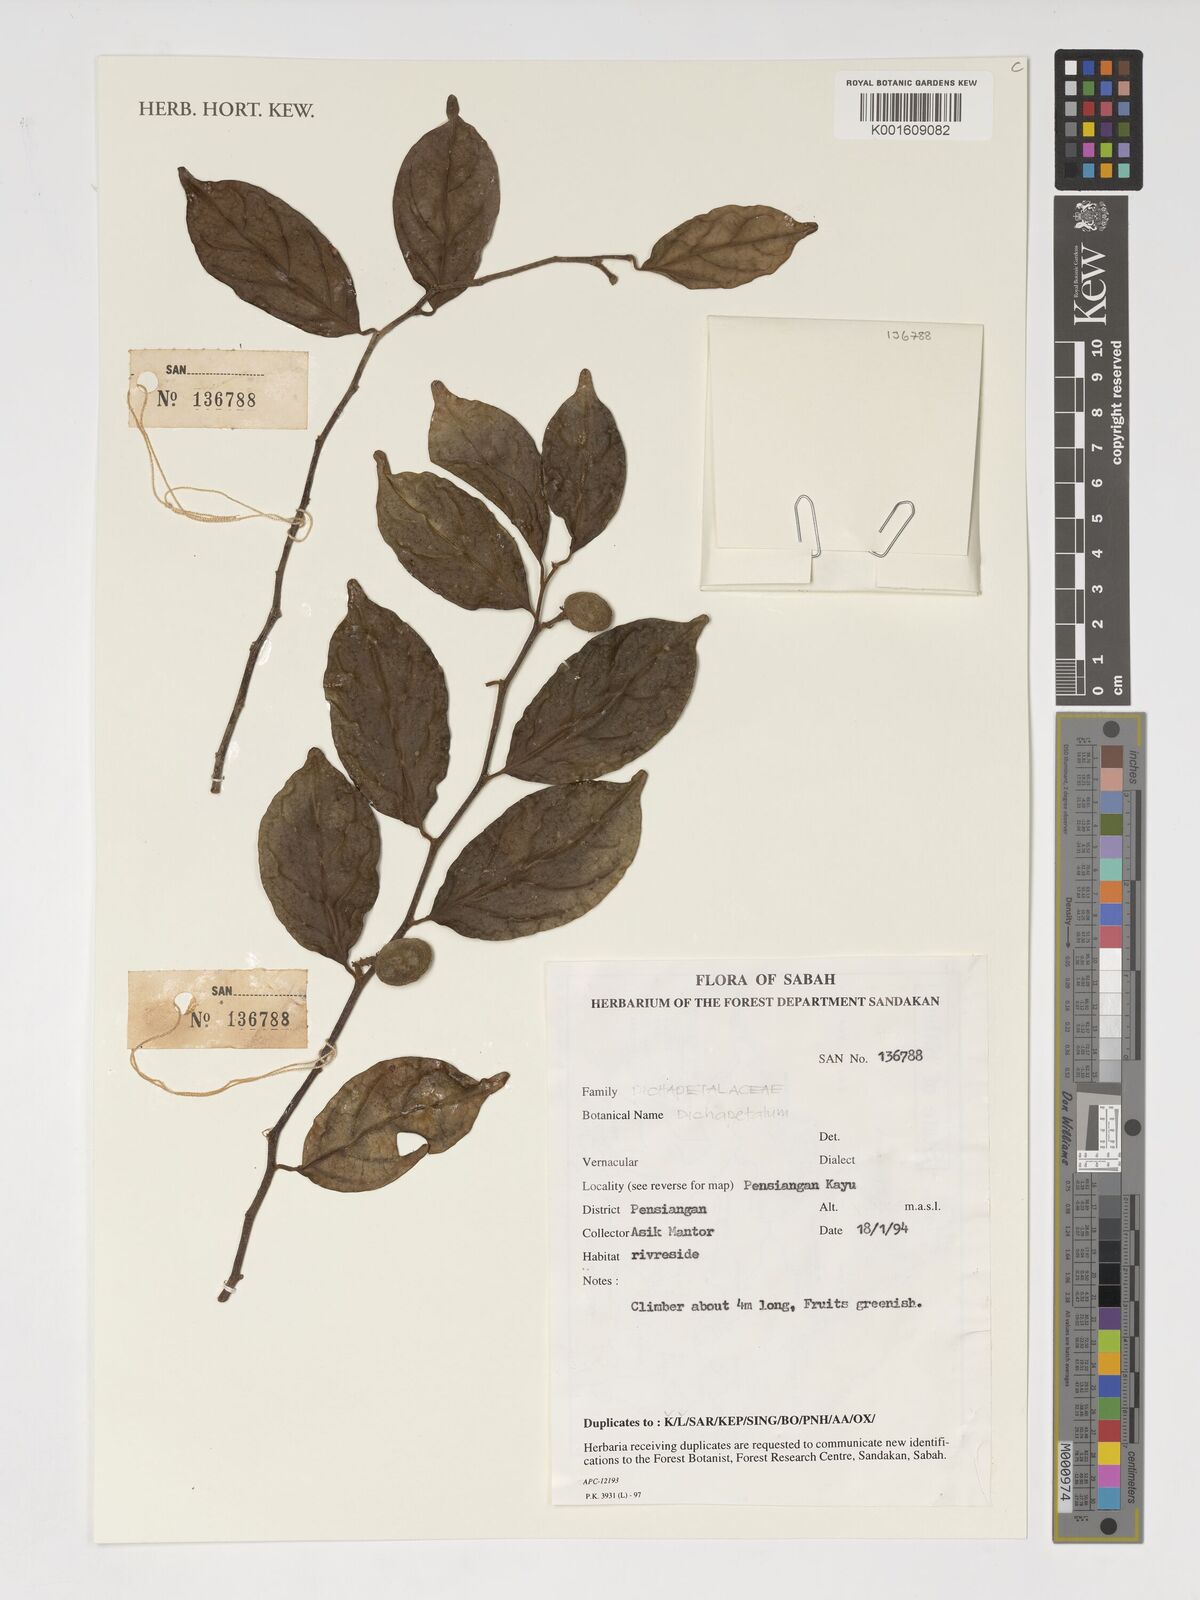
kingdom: Plantae
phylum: Tracheophyta
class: Magnoliopsida
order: Malpighiales
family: Dichapetalaceae
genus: Dichapetalum
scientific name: Dichapetalum
